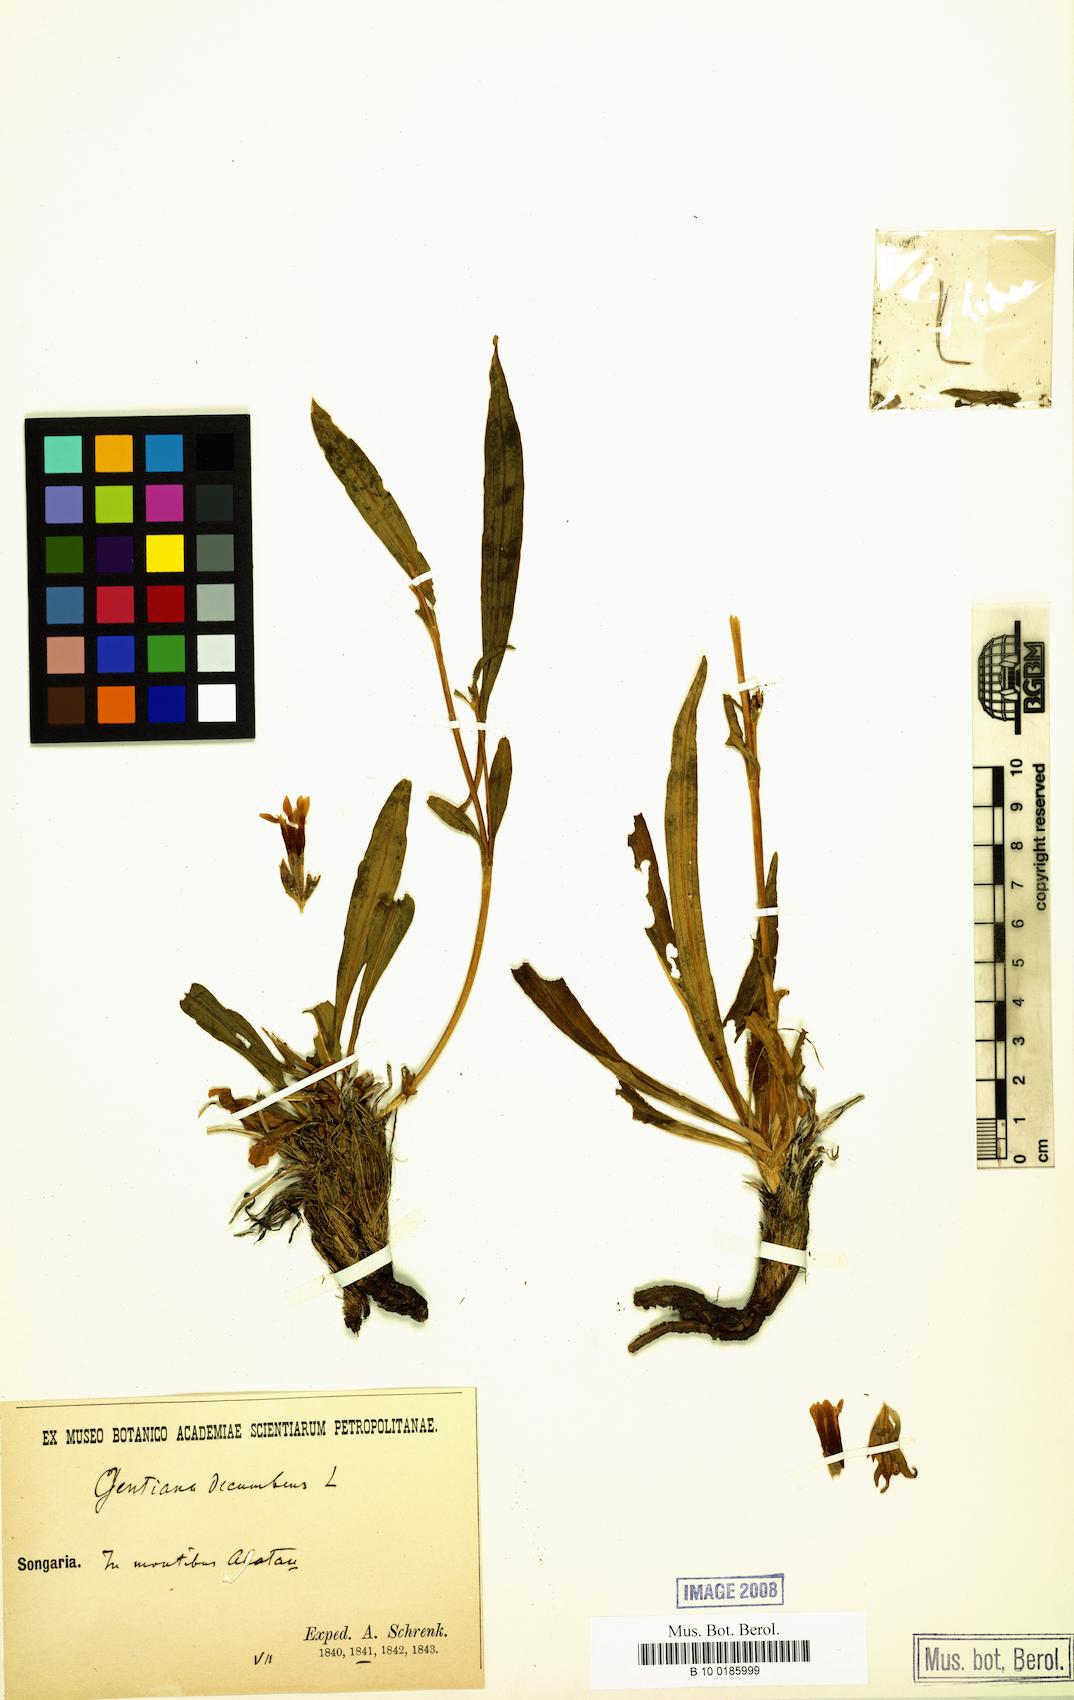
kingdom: Plantae
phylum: Tracheophyta
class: Magnoliopsida
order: Gentianales
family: Gentianaceae
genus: Gentiana
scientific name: Gentiana decumbens
